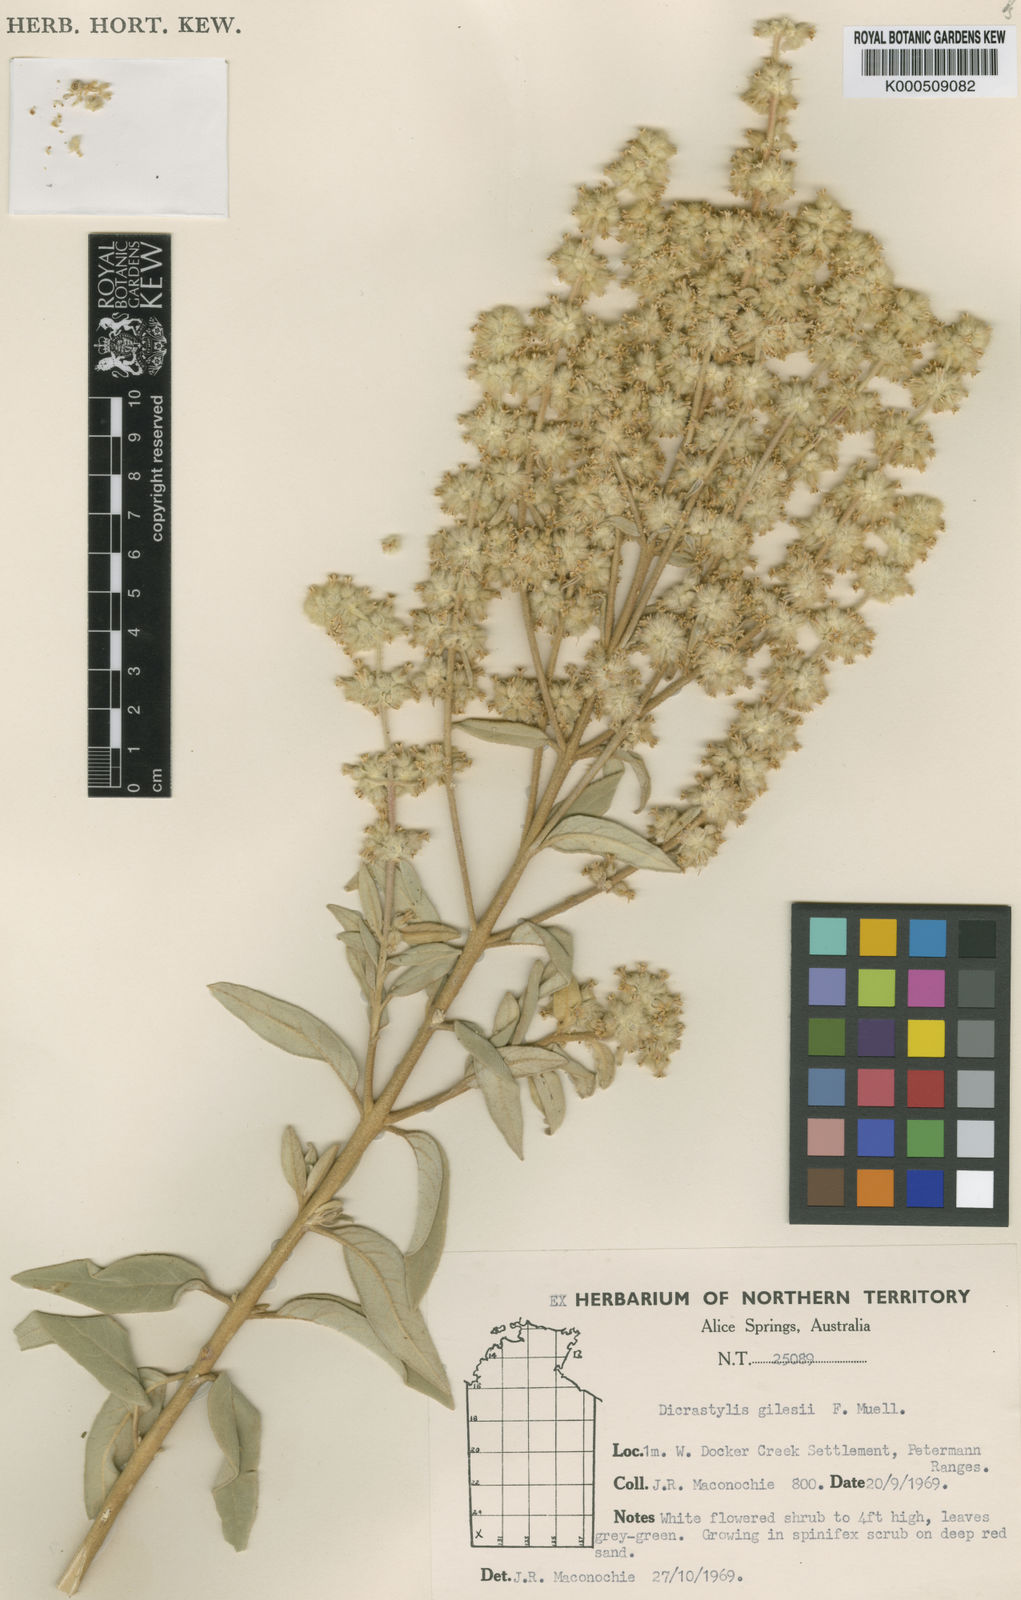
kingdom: Plantae
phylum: Tracheophyta
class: Magnoliopsida
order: Lamiales
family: Lamiaceae
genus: Dicrastylis
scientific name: Dicrastylis gilesii
